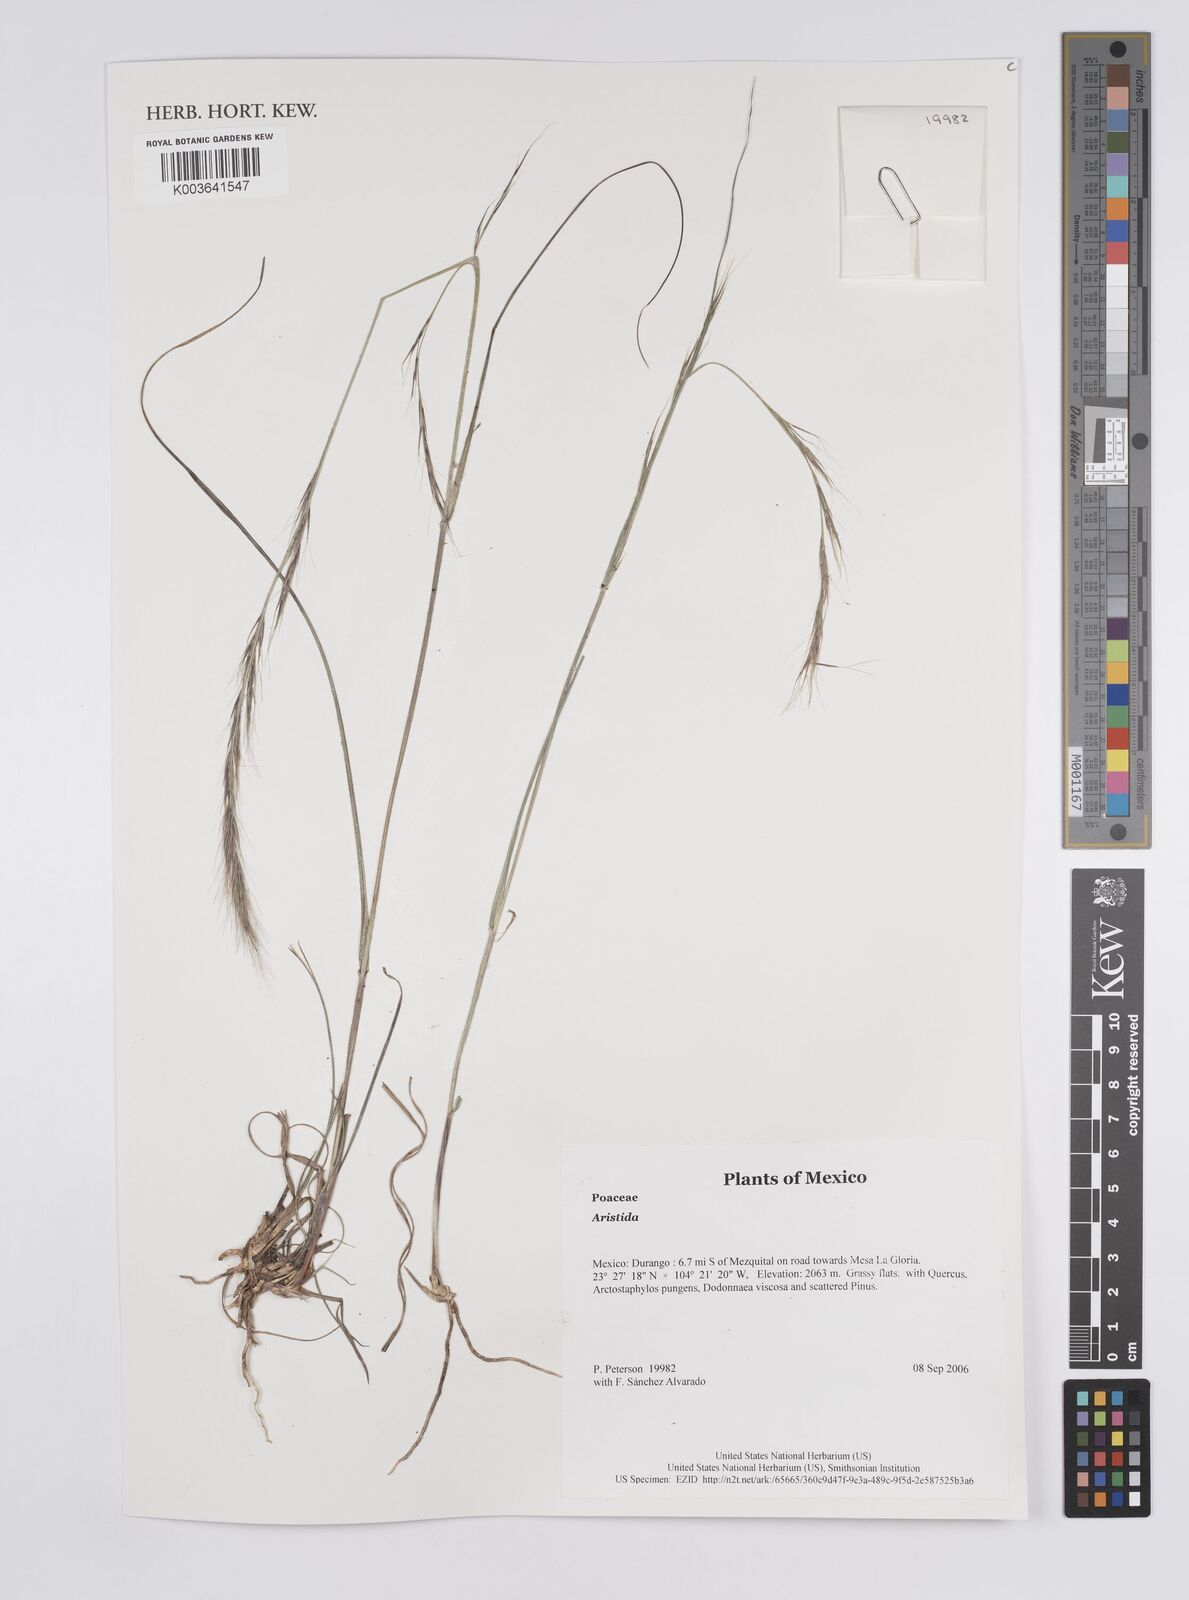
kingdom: Plantae
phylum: Tracheophyta
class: Liliopsida
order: Poales
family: Poaceae
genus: Aristida
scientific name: Aristida
